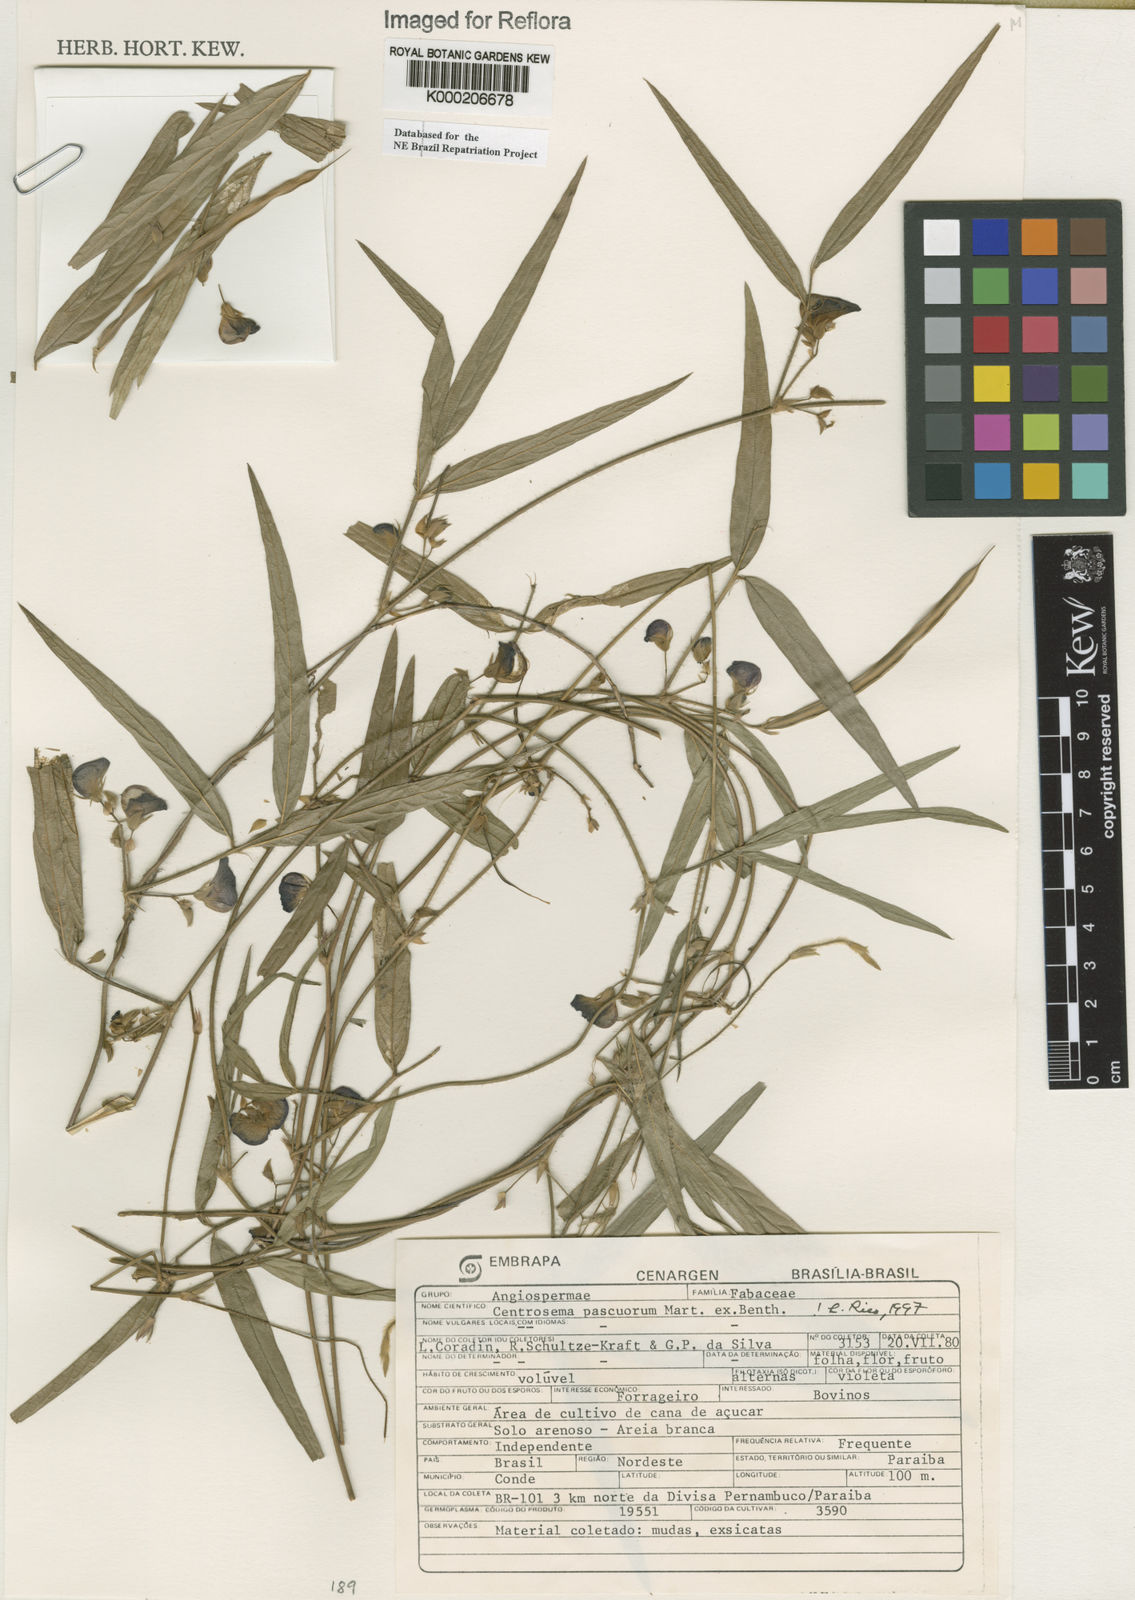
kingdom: Plantae
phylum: Tracheophyta
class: Magnoliopsida
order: Fabales
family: Fabaceae
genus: Centrosema
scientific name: Centrosema pascuorum
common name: Centurion
